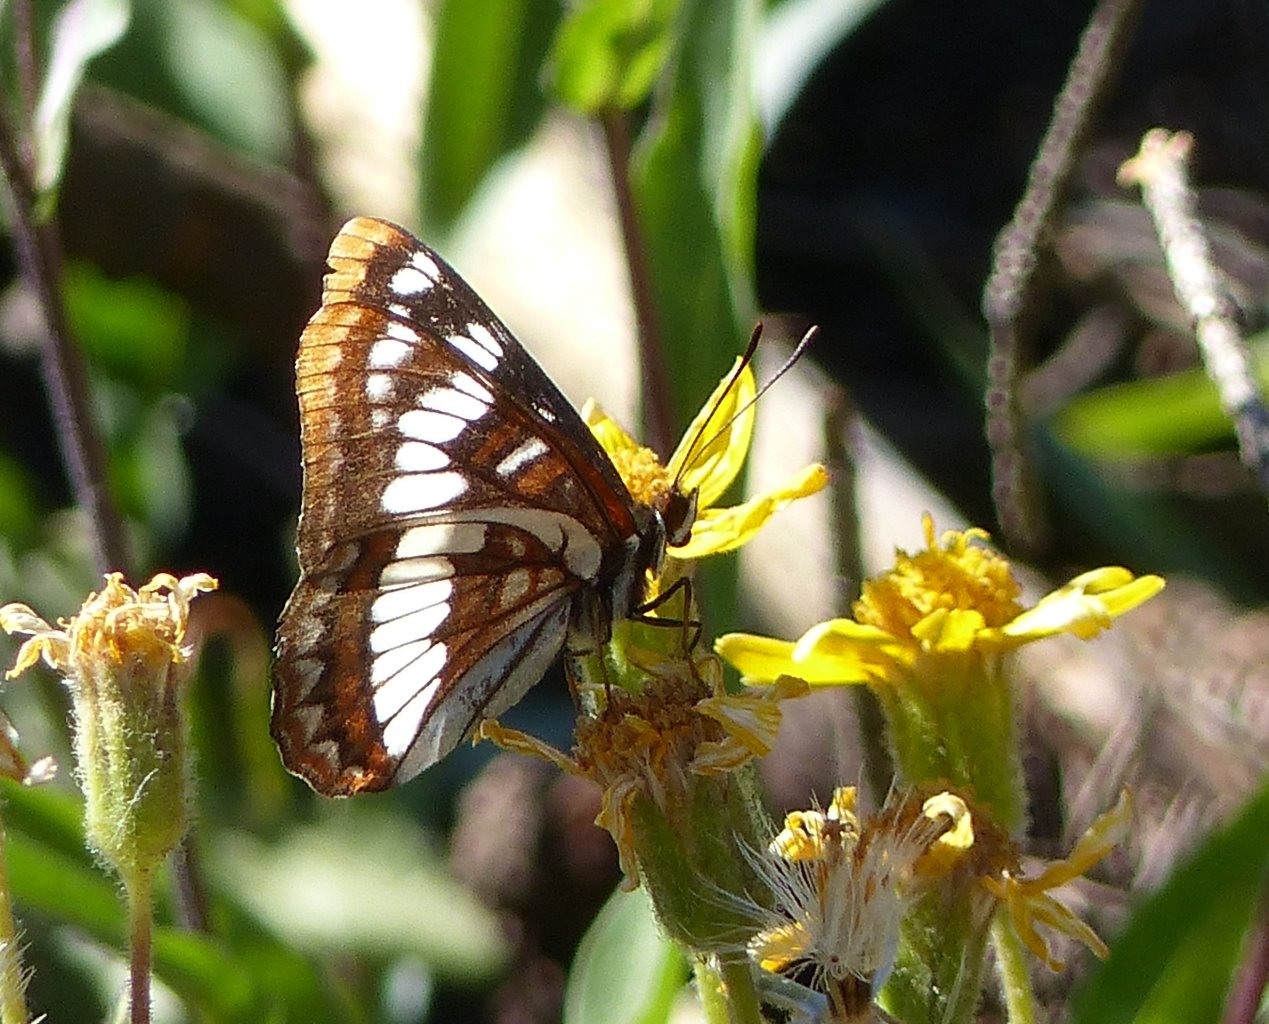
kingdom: Animalia
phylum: Arthropoda
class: Insecta
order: Lepidoptera
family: Nymphalidae
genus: Limenitis
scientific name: Limenitis lorquini
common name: Lorquin's Admiral
